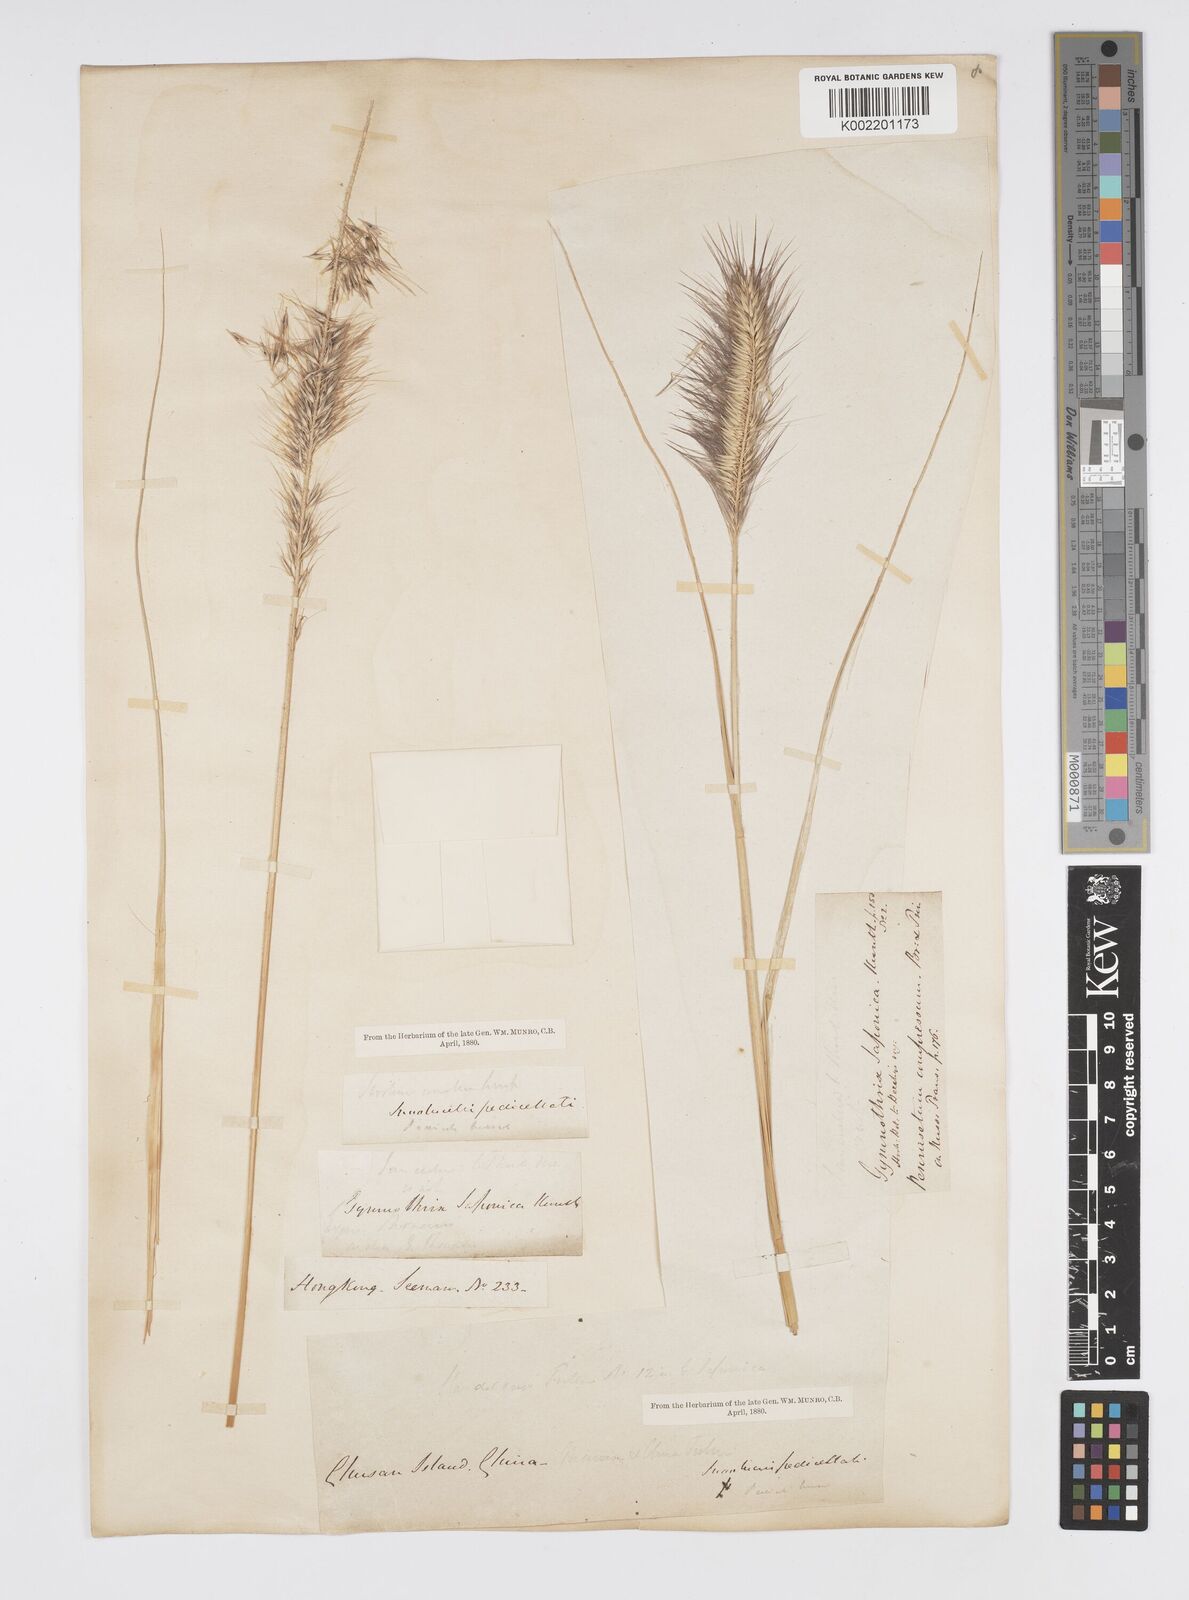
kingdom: Plantae
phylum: Tracheophyta
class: Liliopsida
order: Poales
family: Poaceae
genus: Cenchrus
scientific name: Cenchrus alopecuroides
